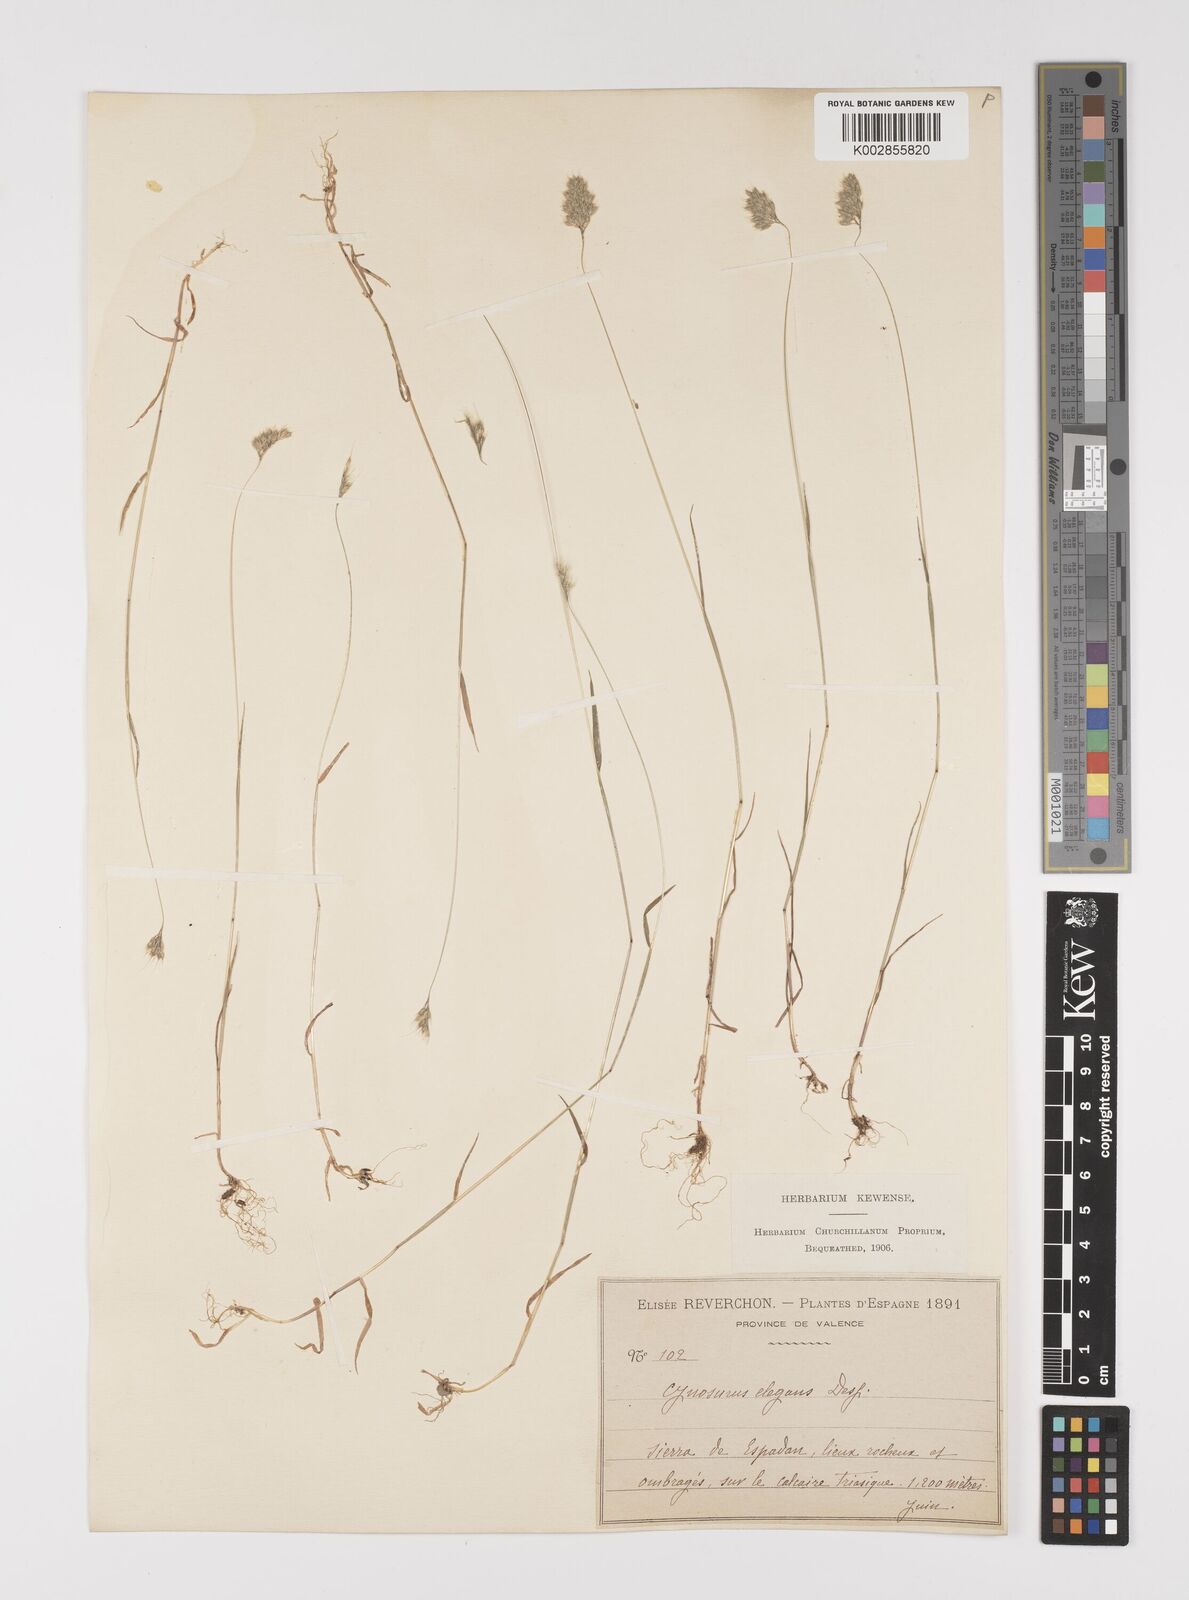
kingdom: Plantae
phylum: Tracheophyta
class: Liliopsida
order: Poales
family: Poaceae
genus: Cynosurus
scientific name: Cynosurus elegans
